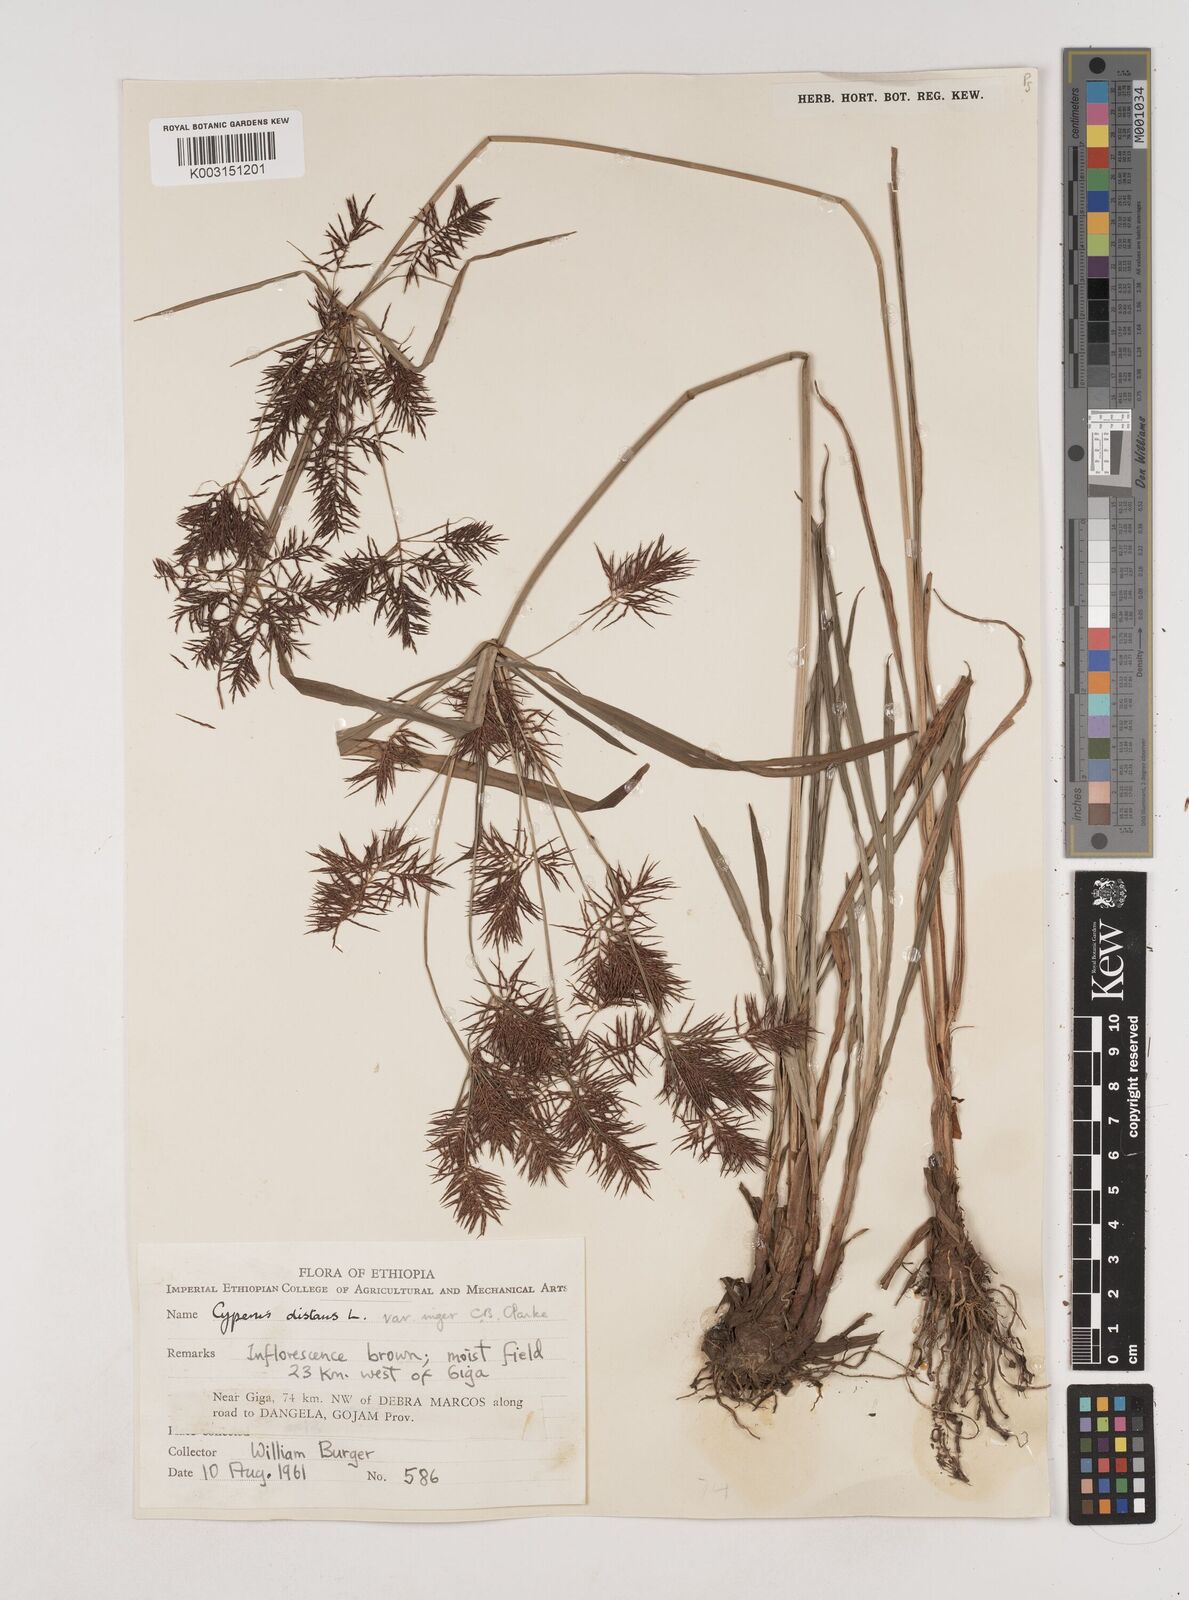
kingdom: Plantae
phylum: Tracheophyta
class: Liliopsida
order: Poales
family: Cyperaceae
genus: Cyperus
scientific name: Cyperus distans
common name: Slender cyperus
